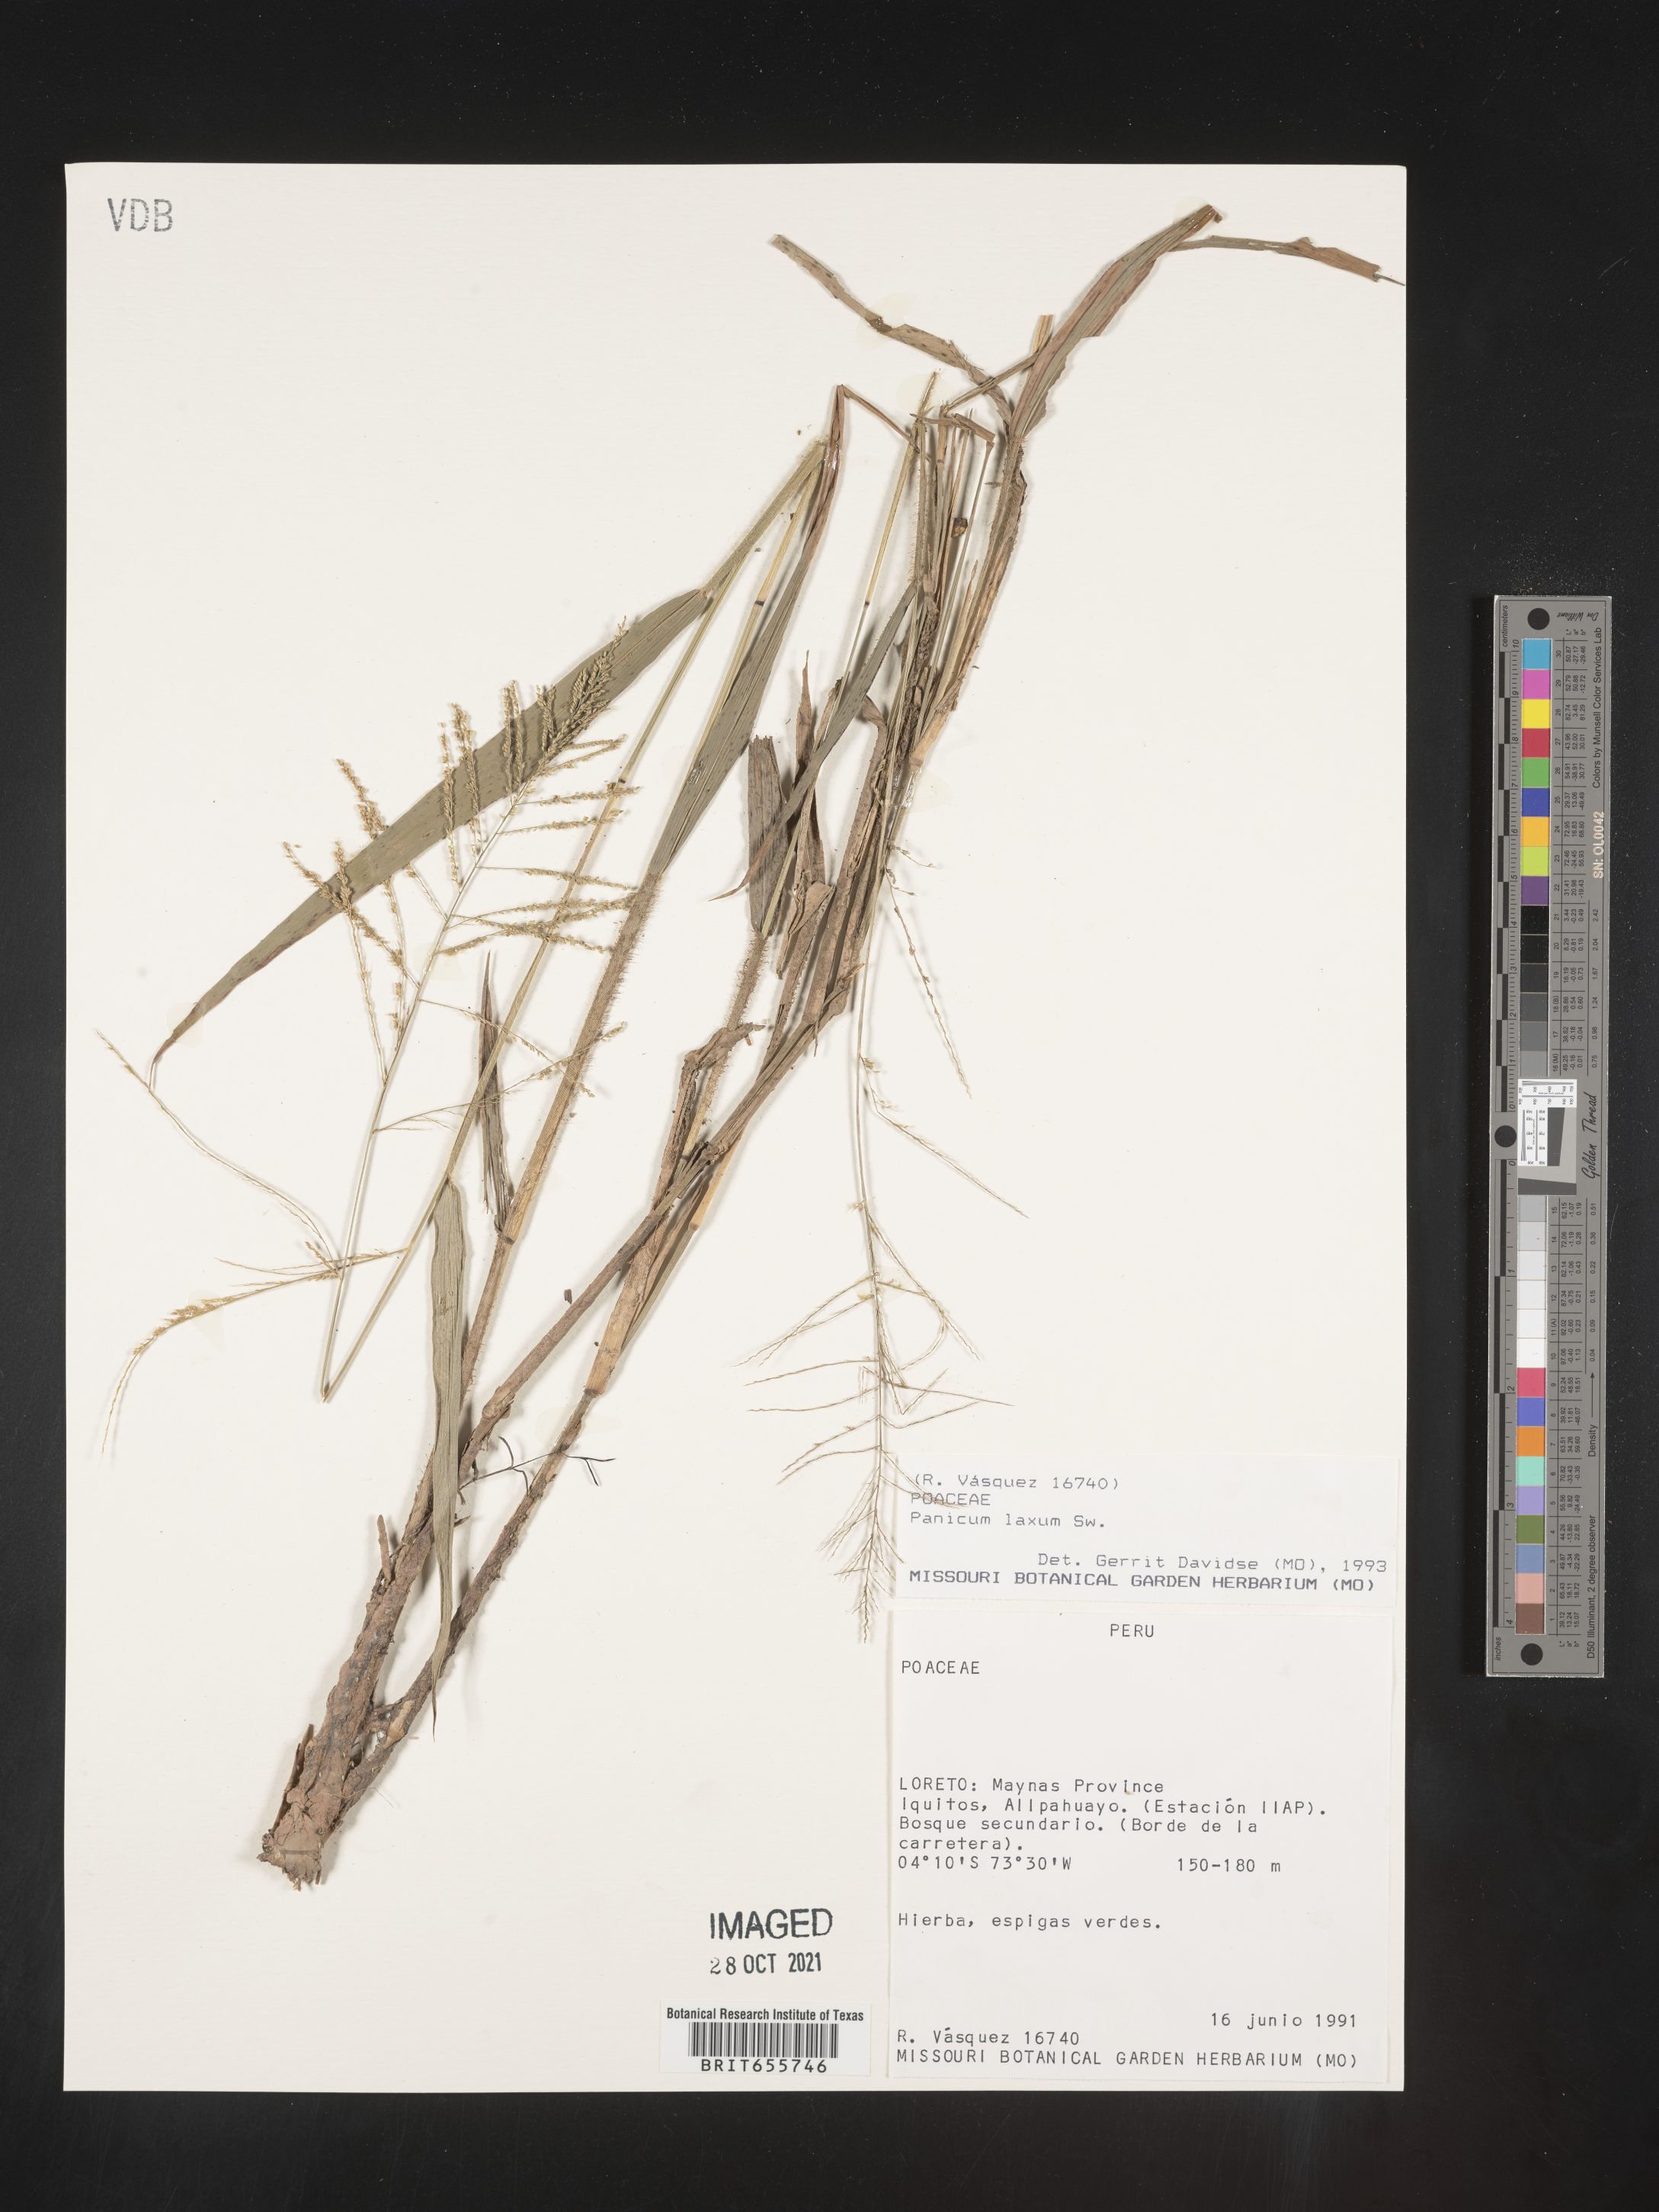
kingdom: Plantae
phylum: Tracheophyta
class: Liliopsida
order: Poales
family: Poaceae
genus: Panicum
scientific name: Panicum
